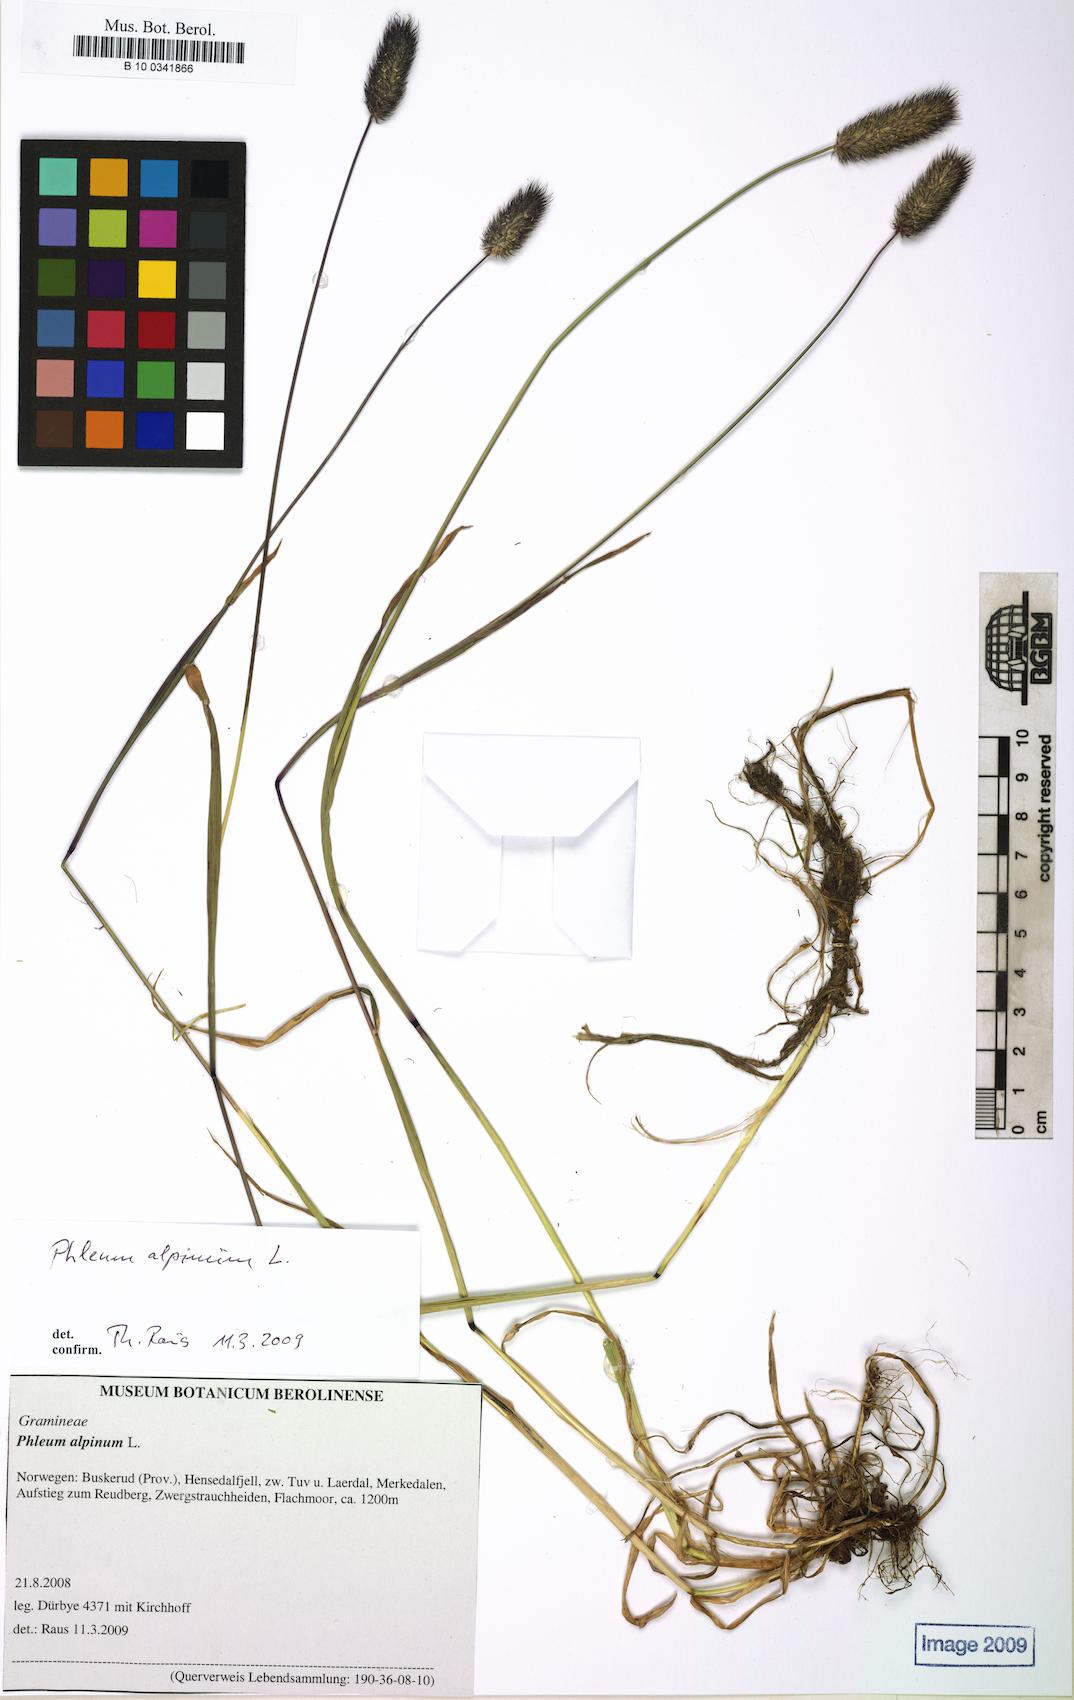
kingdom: Plantae
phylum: Tracheophyta
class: Liliopsida
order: Poales
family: Poaceae
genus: Phleum
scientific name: Phleum alpinum
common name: Alpine cat's-tail
